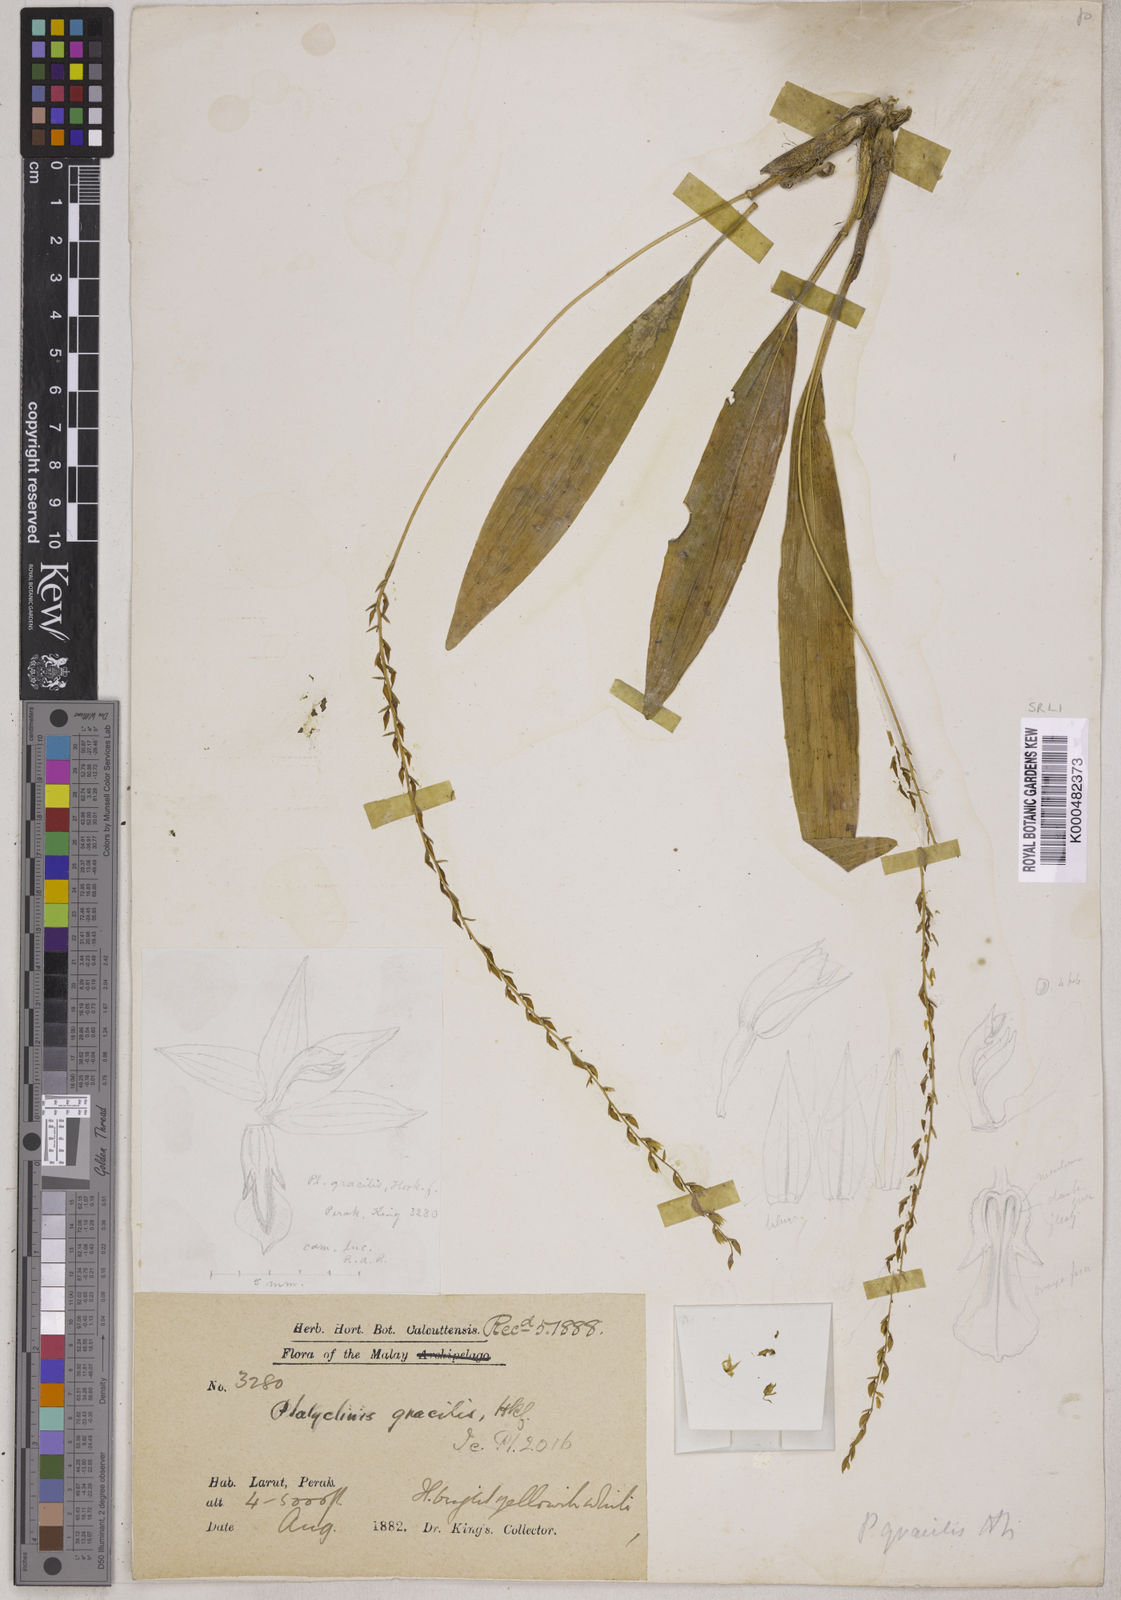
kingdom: Plantae
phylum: Tracheophyta
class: Liliopsida
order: Asparagales
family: Orchidaceae
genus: Coelogyne
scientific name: Coelogyne gracilis
